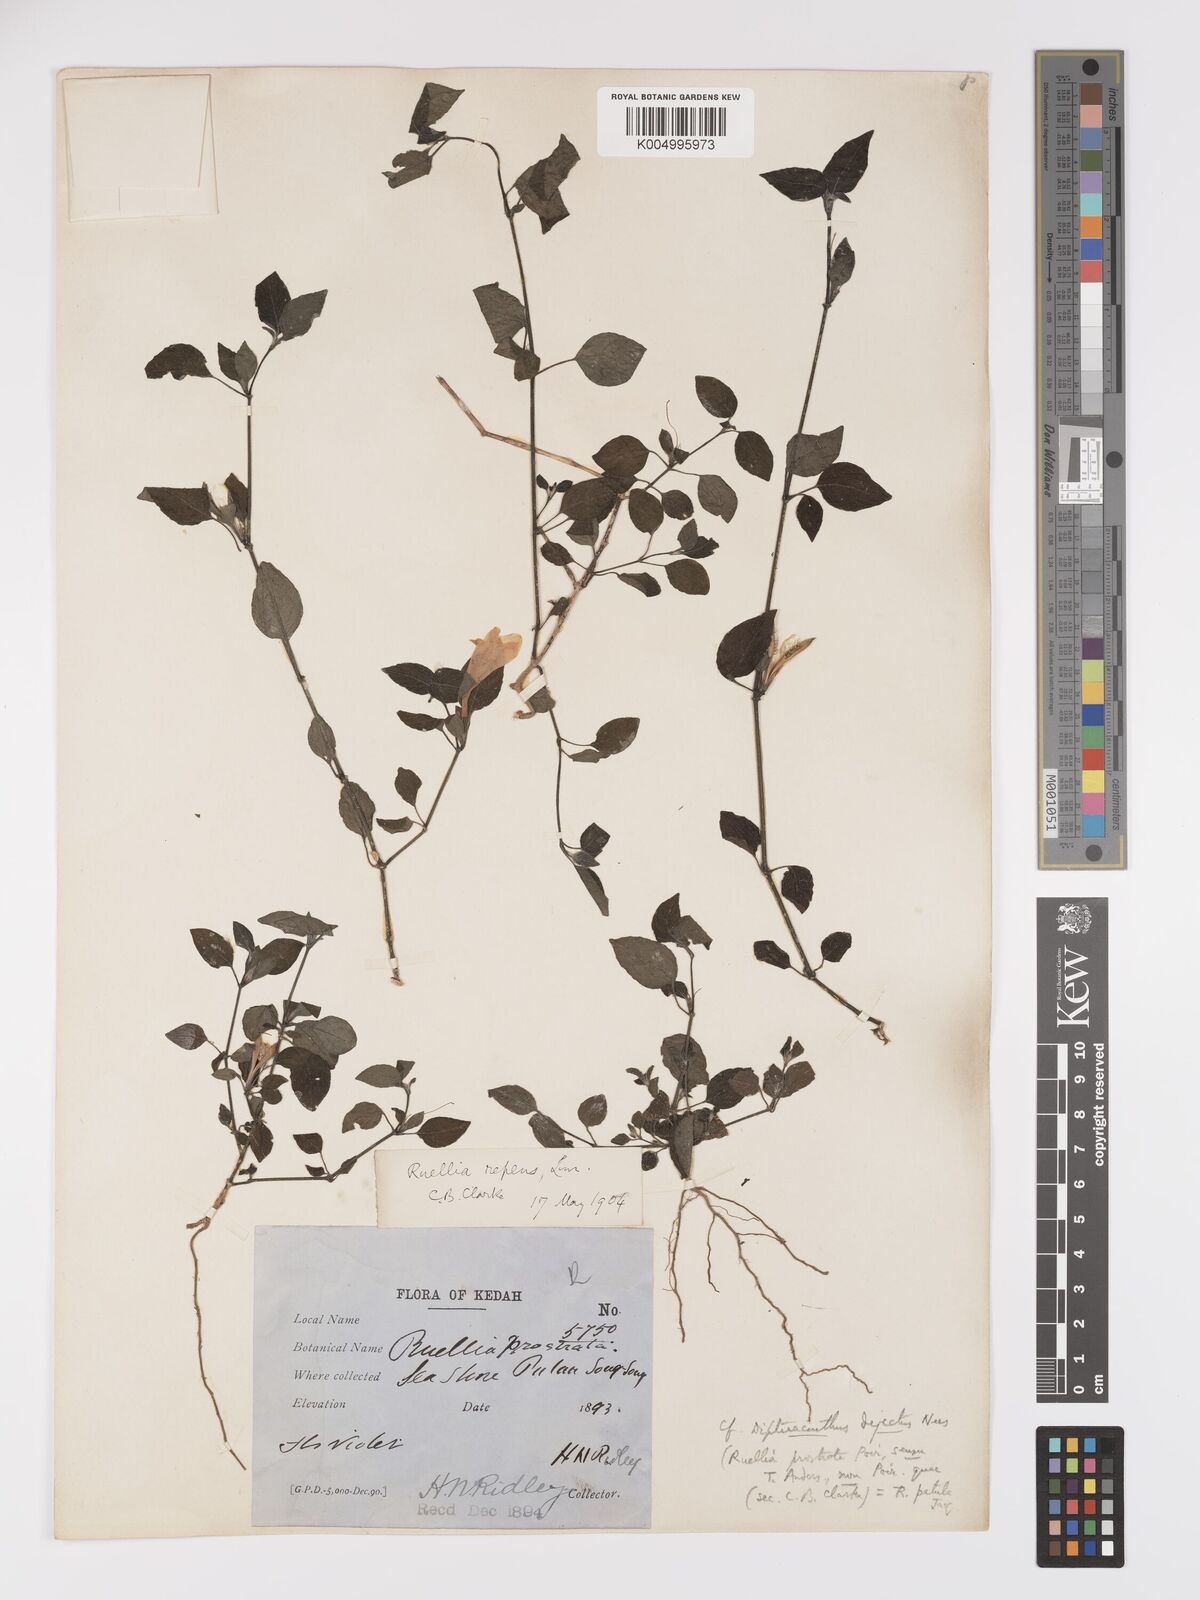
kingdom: Plantae
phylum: Tracheophyta
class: Magnoliopsida
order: Lamiales
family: Acanthaceae
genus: Ruellia
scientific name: Ruellia
